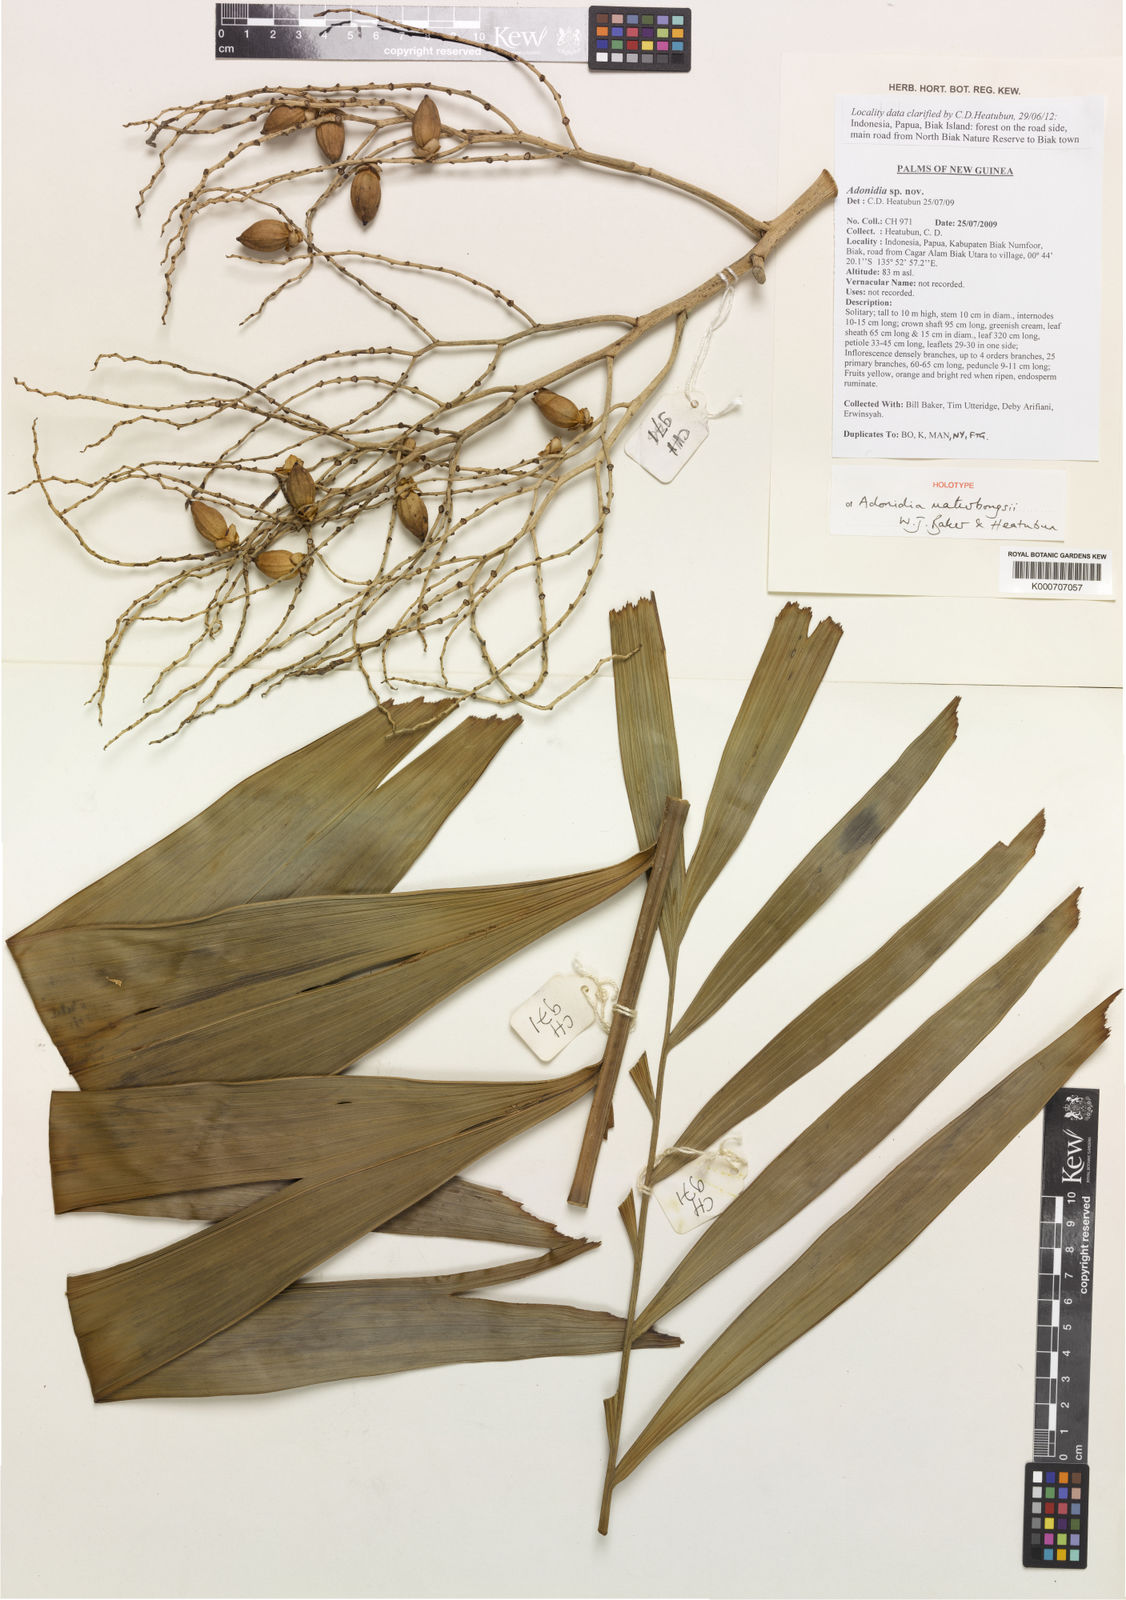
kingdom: Plantae
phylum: Tracheophyta
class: Liliopsida
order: Arecales
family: Arecaceae
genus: Manjekia
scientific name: Manjekia maturbongsii
